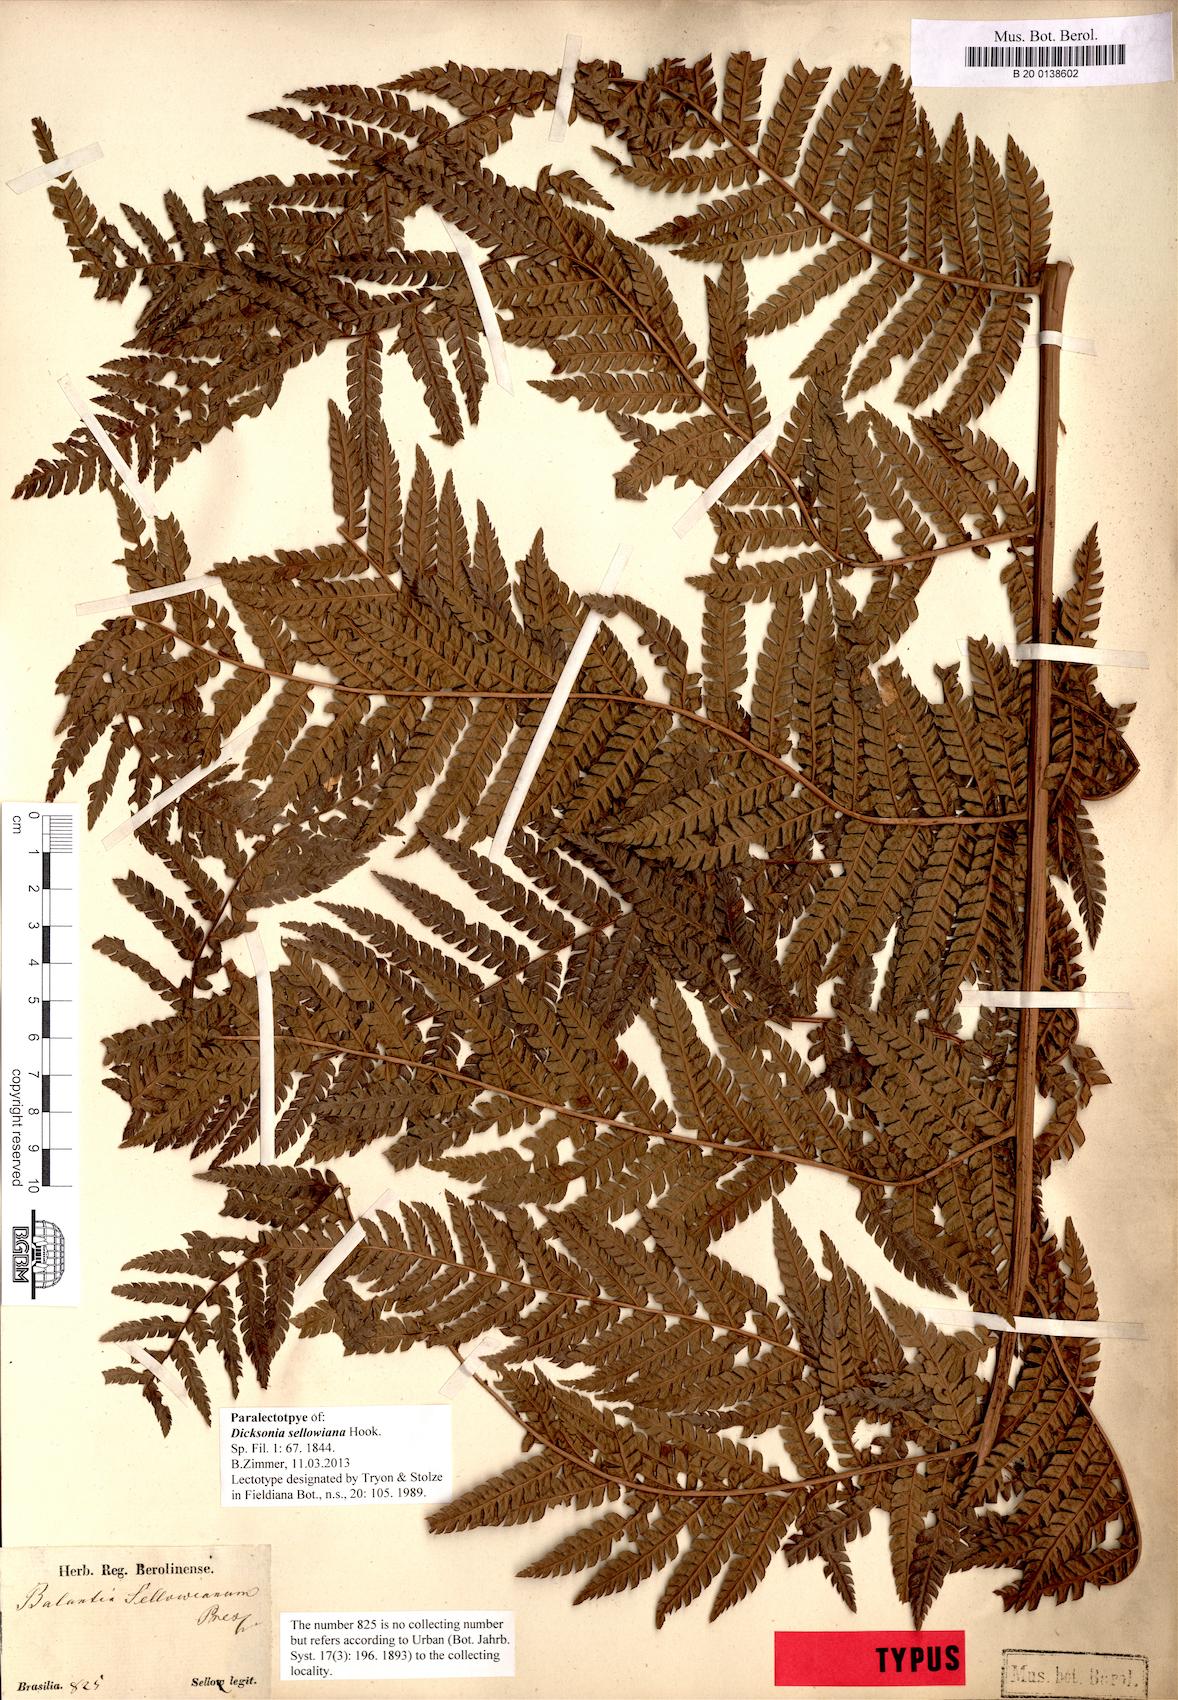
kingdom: Plantae
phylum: Tracheophyta
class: Polypodiopsida
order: Cyatheales
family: Dicksoniaceae
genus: Dicksonia
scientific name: Dicksonia sellowiana
